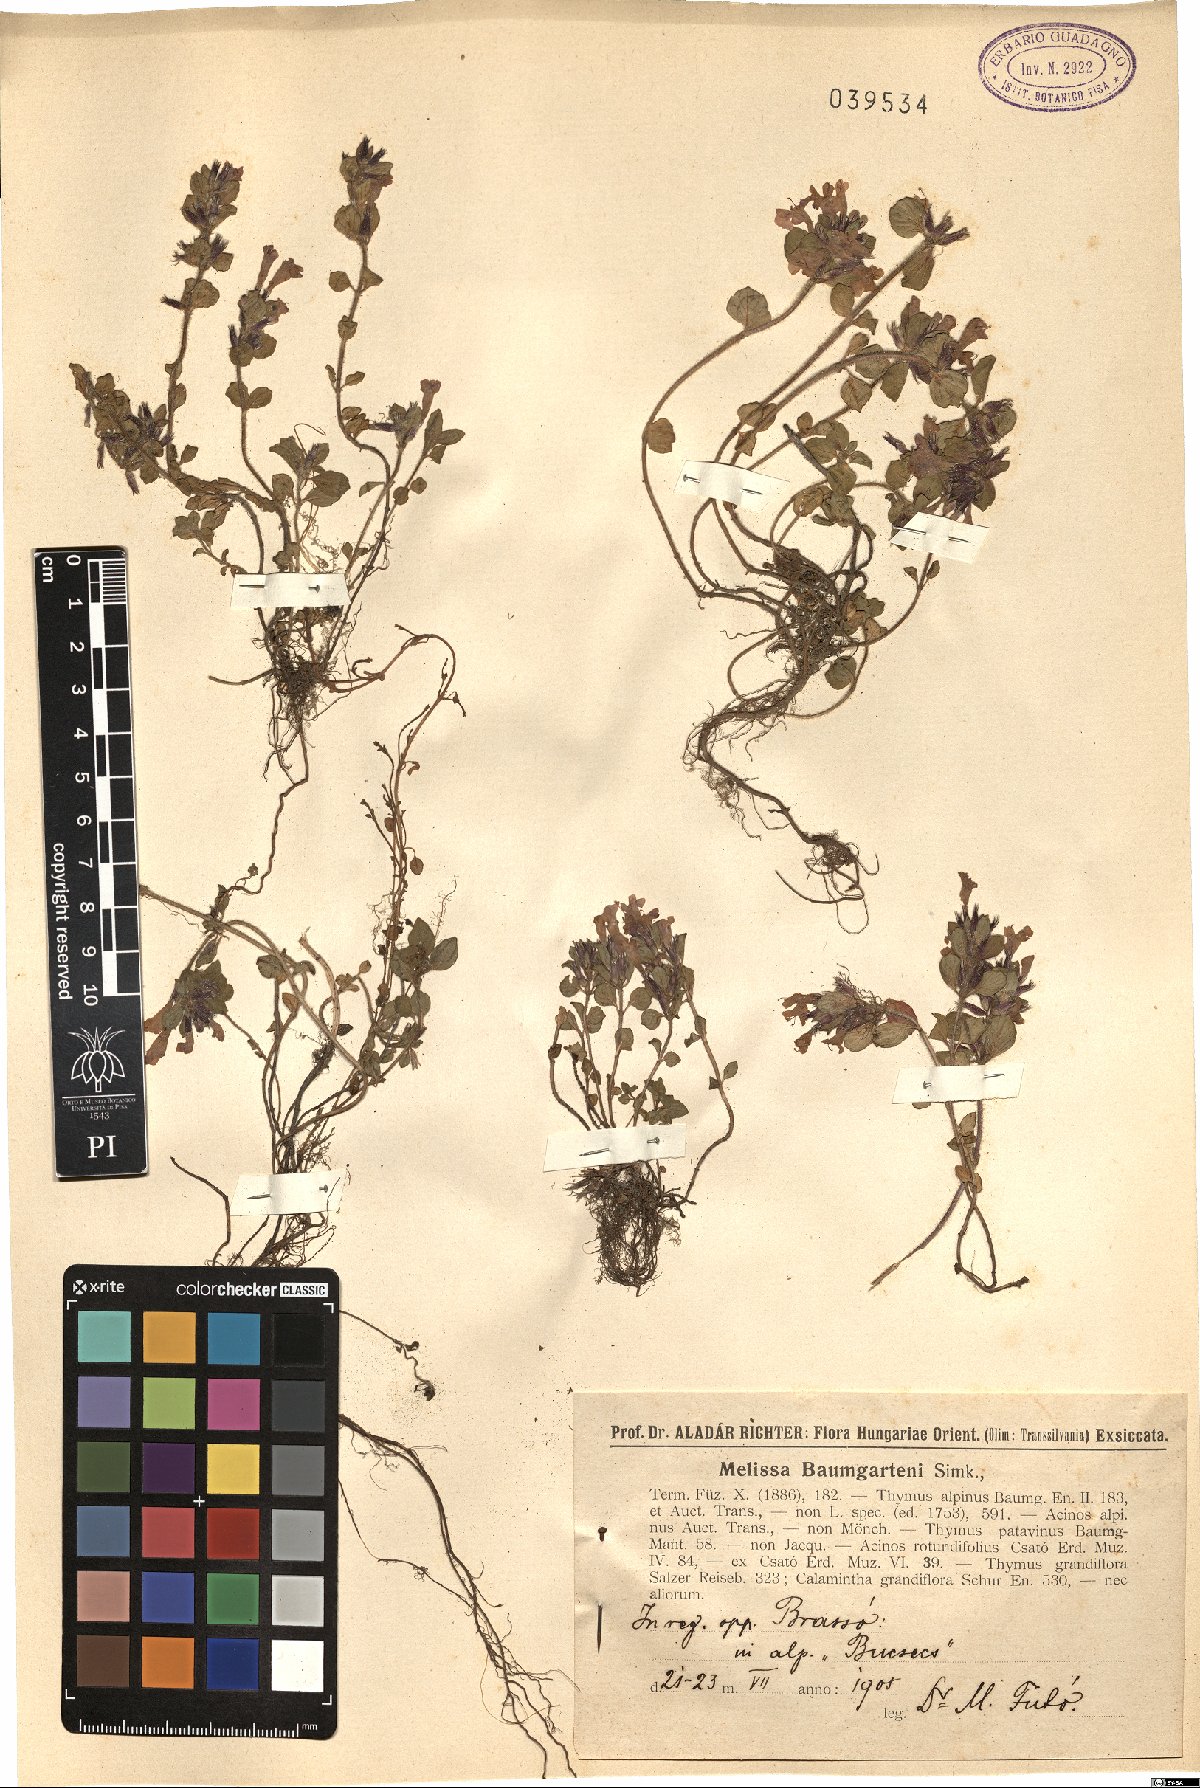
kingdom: Plantae
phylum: Tracheophyta
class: Magnoliopsida
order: Lamiales
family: Lamiaceae
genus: Clinopodium
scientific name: Clinopodium alpinum
